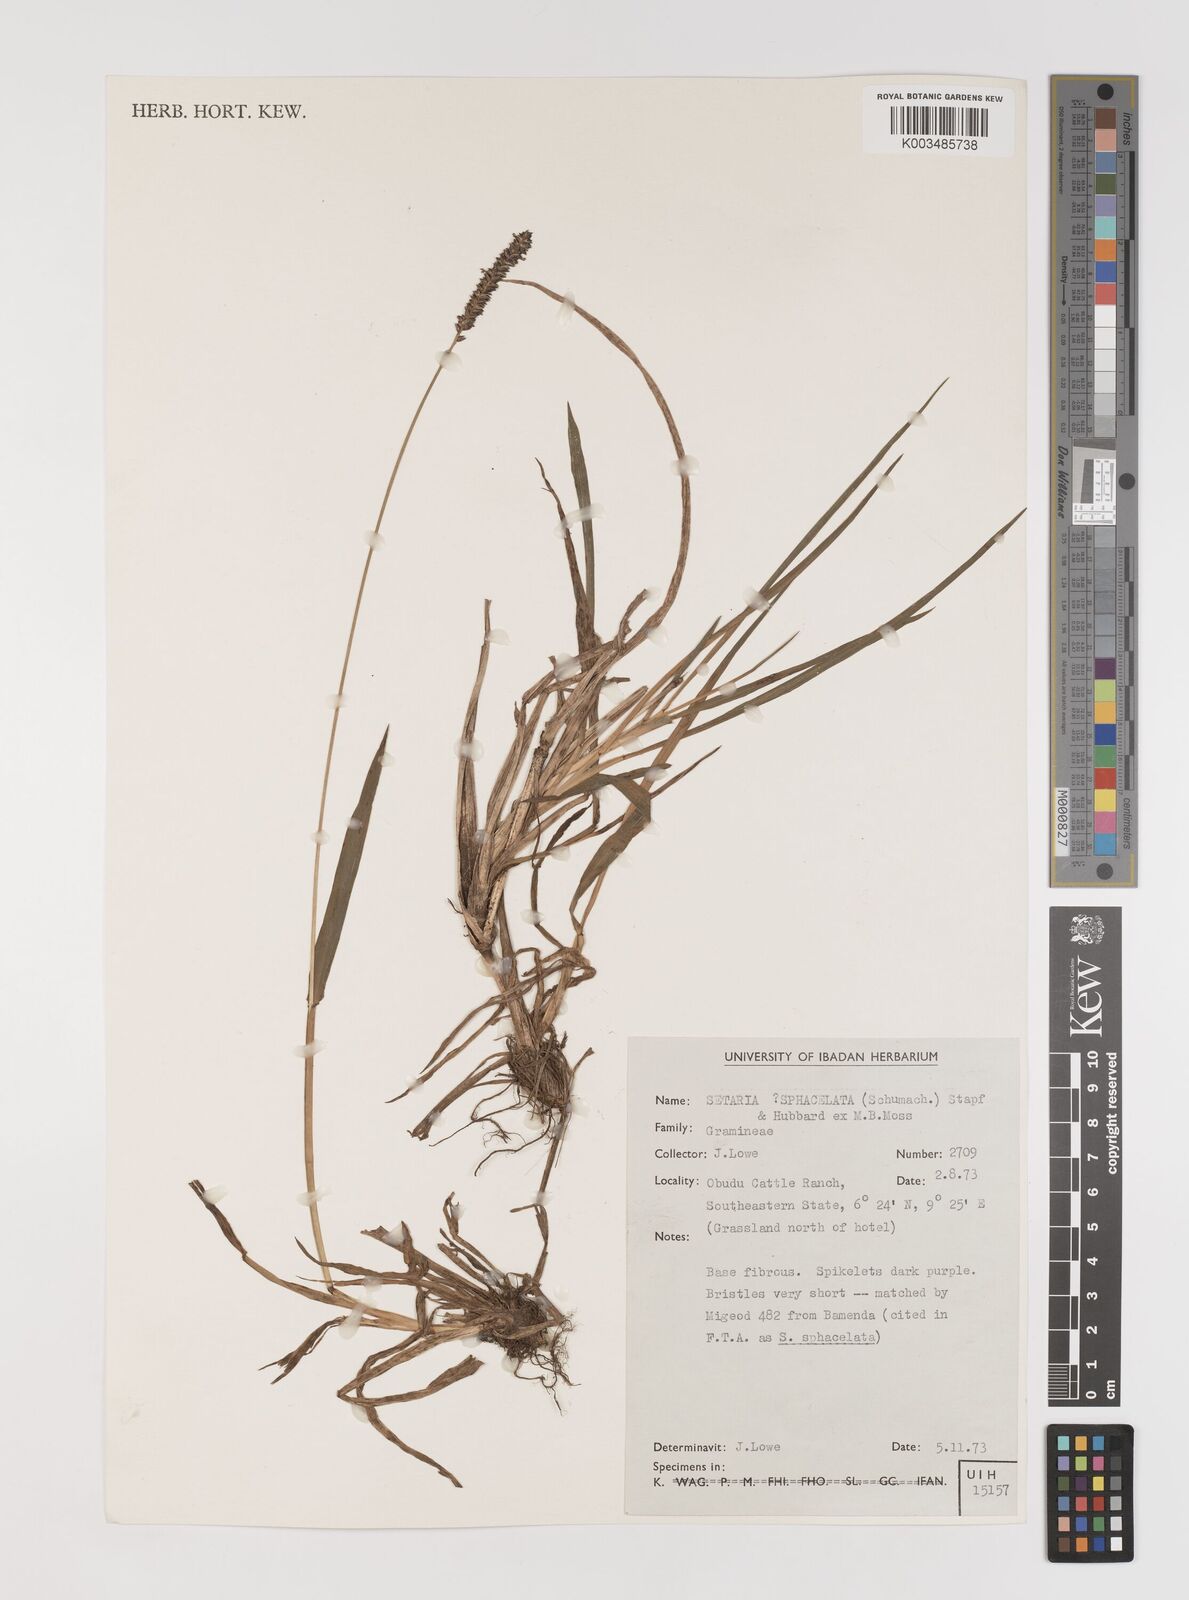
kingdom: Plantae
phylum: Tracheophyta
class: Liliopsida
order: Poales
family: Poaceae
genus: Setaria
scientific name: Setaria sphacelata
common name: African bristlegrass
